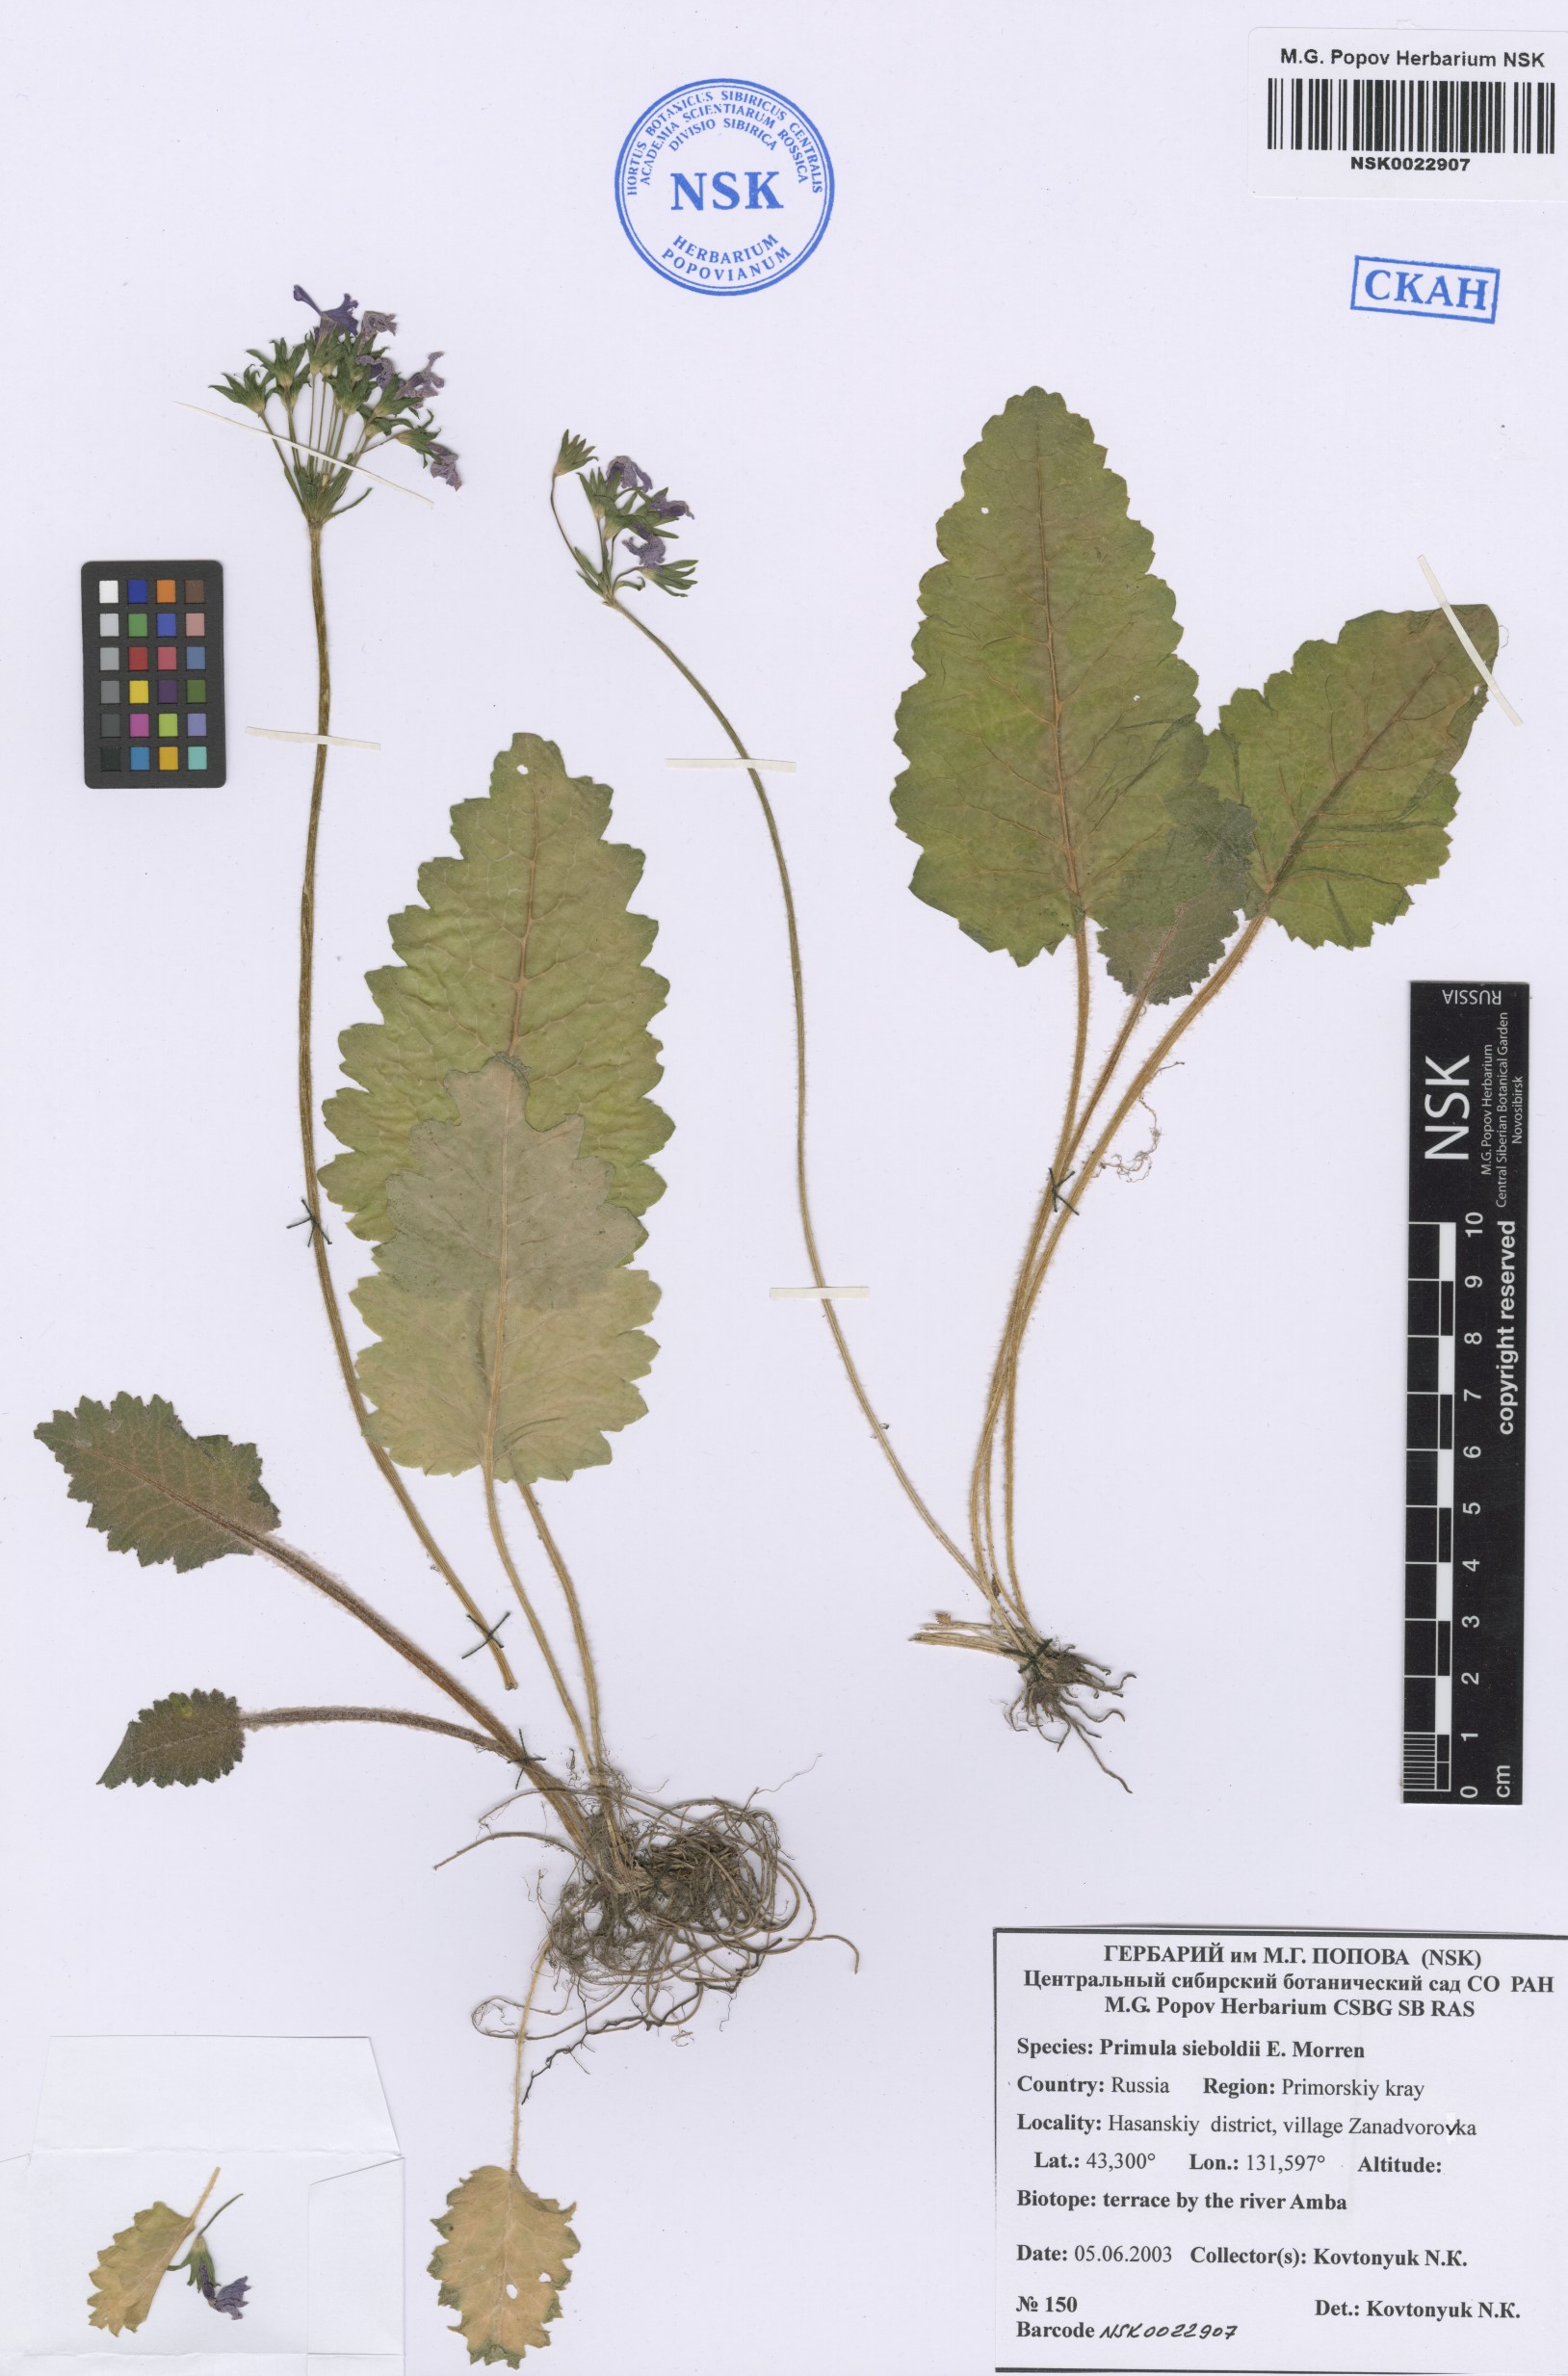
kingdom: Plantae
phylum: Tracheophyta
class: Magnoliopsida
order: Ericales
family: Primulaceae
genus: Primula
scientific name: Primula sieboldii
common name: Japanese primrose
